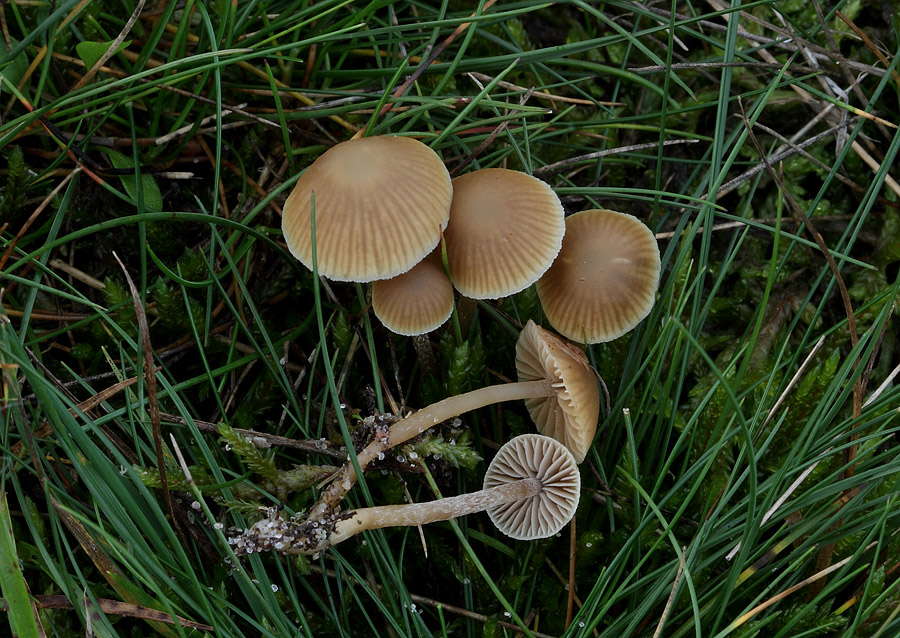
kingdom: Fungi
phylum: Basidiomycota
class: Agaricomycetes
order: Agaricales
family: Hymenogastraceae
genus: Galerina
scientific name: Galerina mniophila
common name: olivengul hjelmhat
